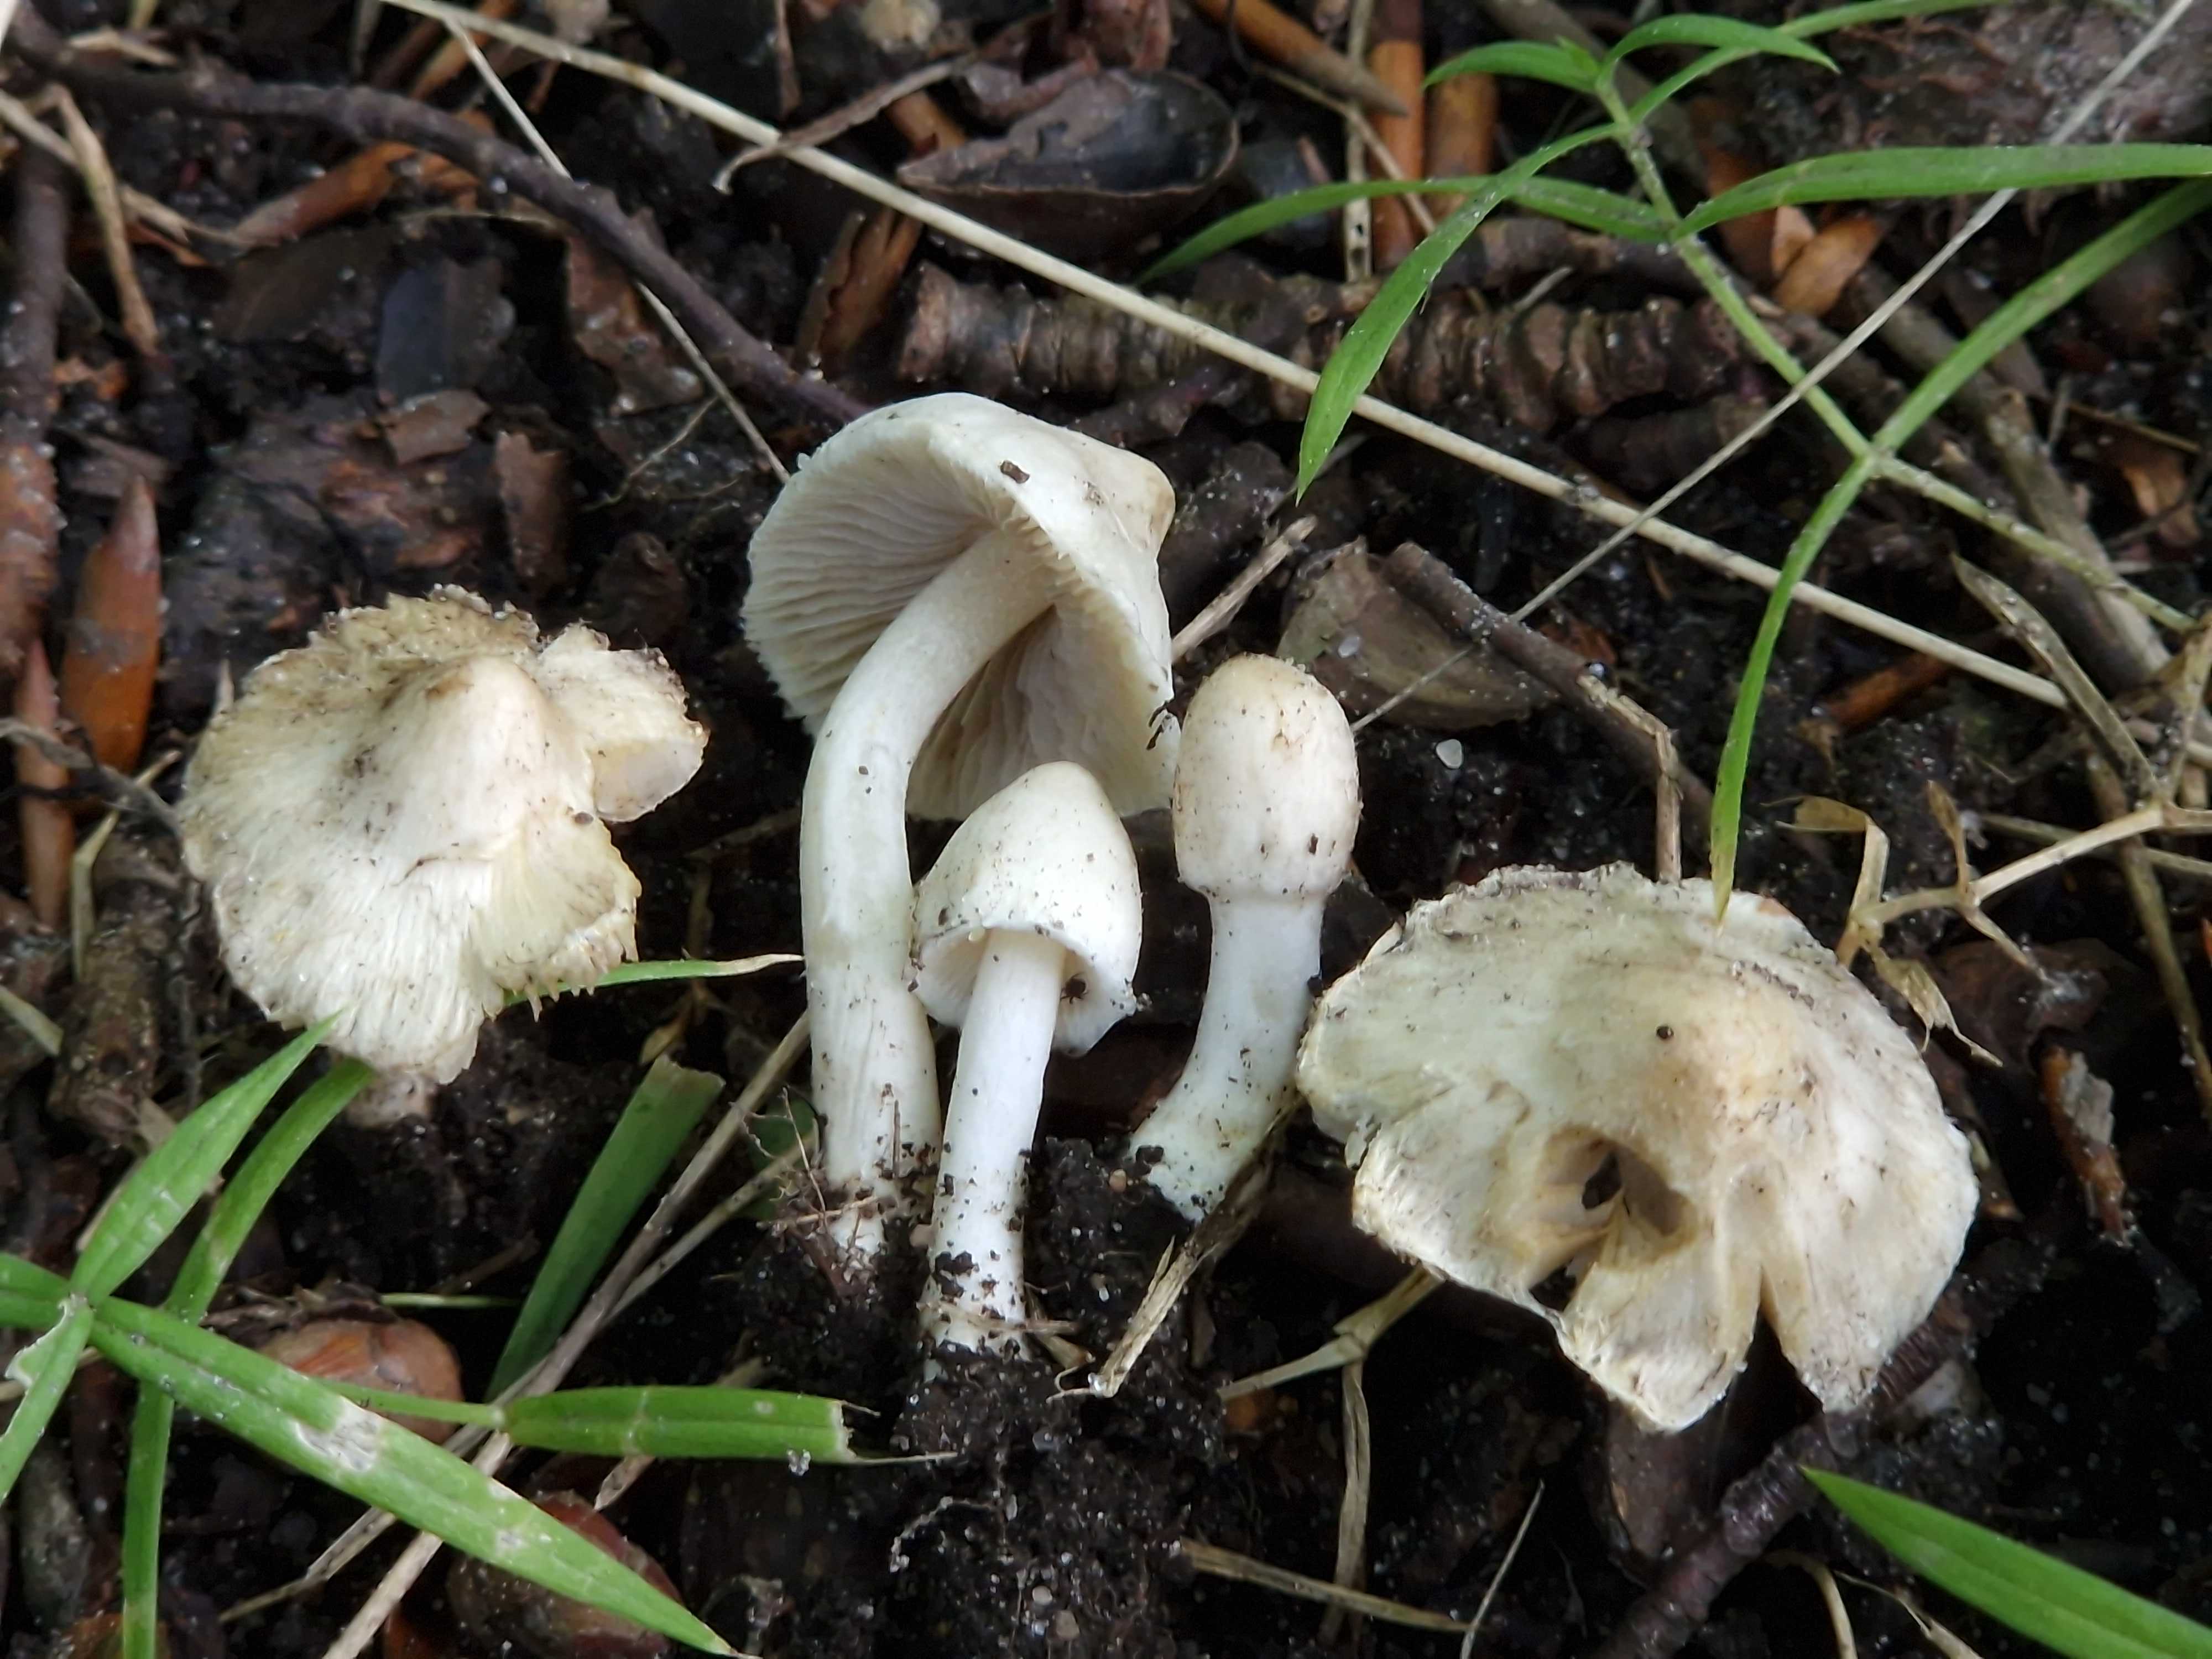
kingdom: Fungi
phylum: Basidiomycota
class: Agaricomycetes
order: Agaricales
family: Inocybaceae
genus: Inocybe
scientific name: Inocybe
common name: almindelig trævlhat
